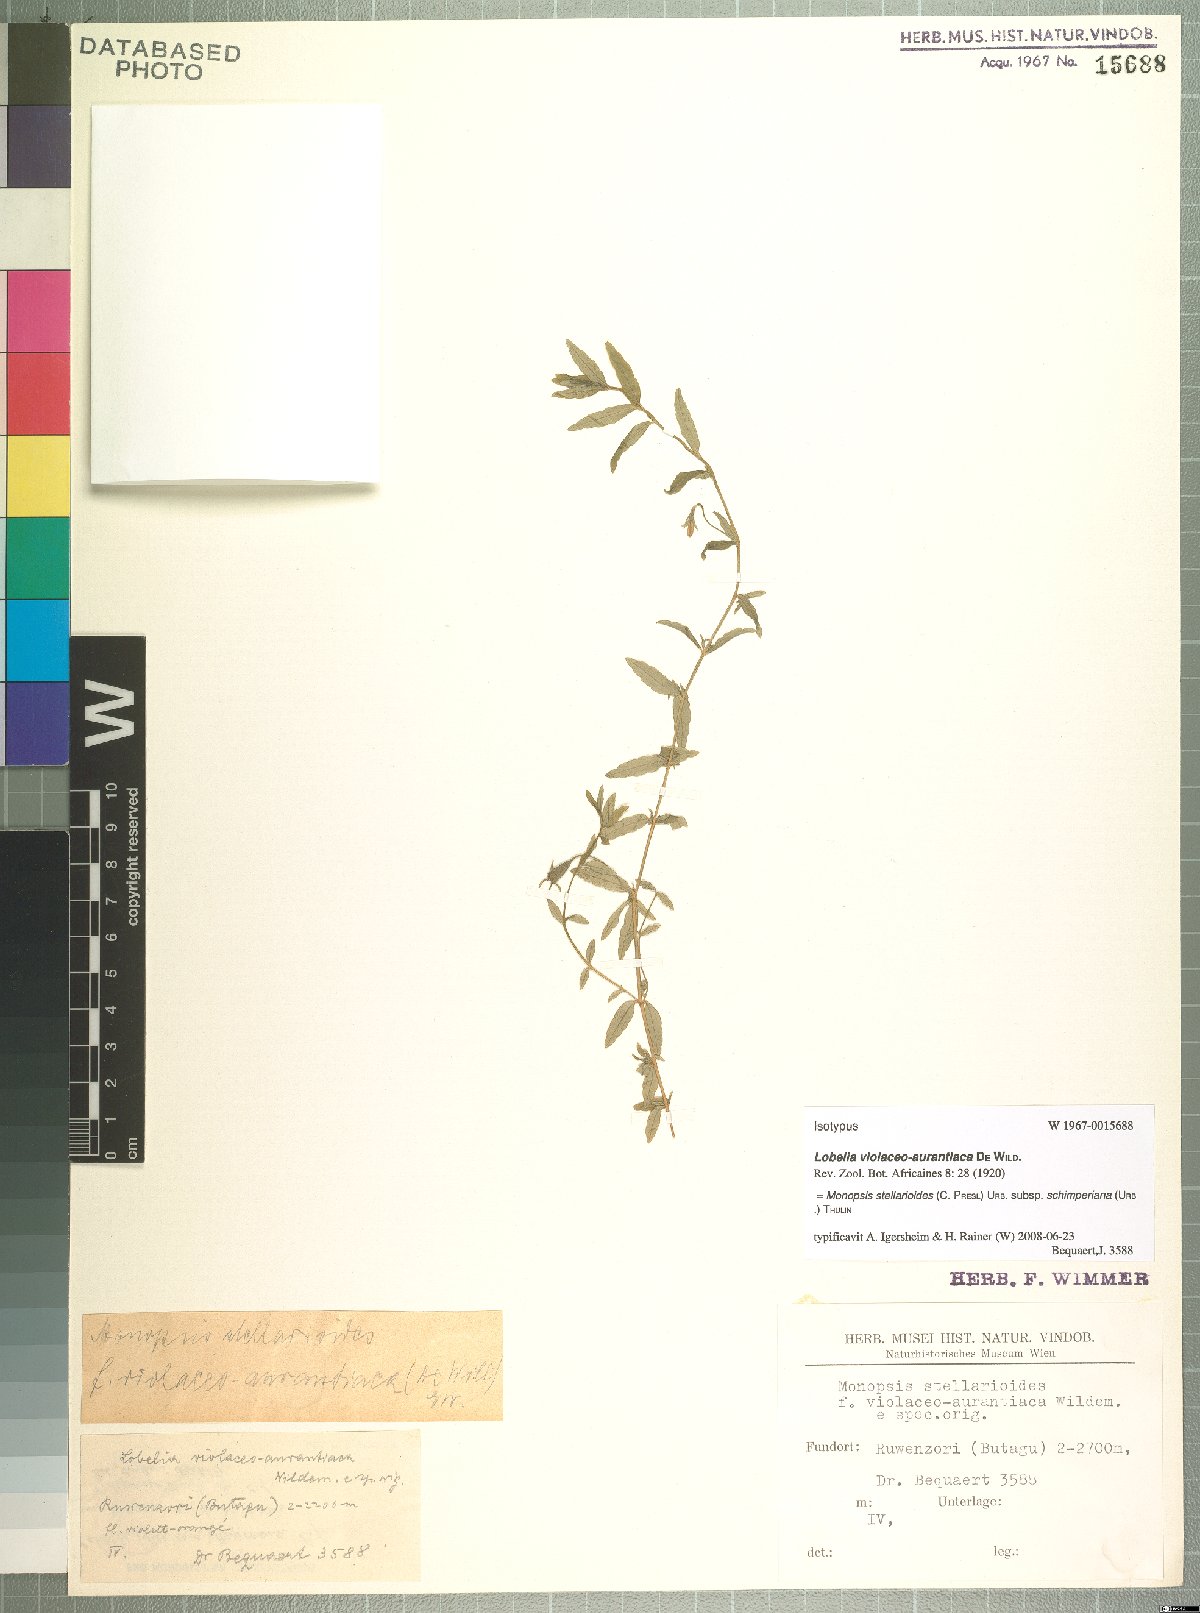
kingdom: Plantae
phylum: Tracheophyta
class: Magnoliopsida
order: Asterales
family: Campanulaceae
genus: Monopsis
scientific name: Monopsis stellarioides
